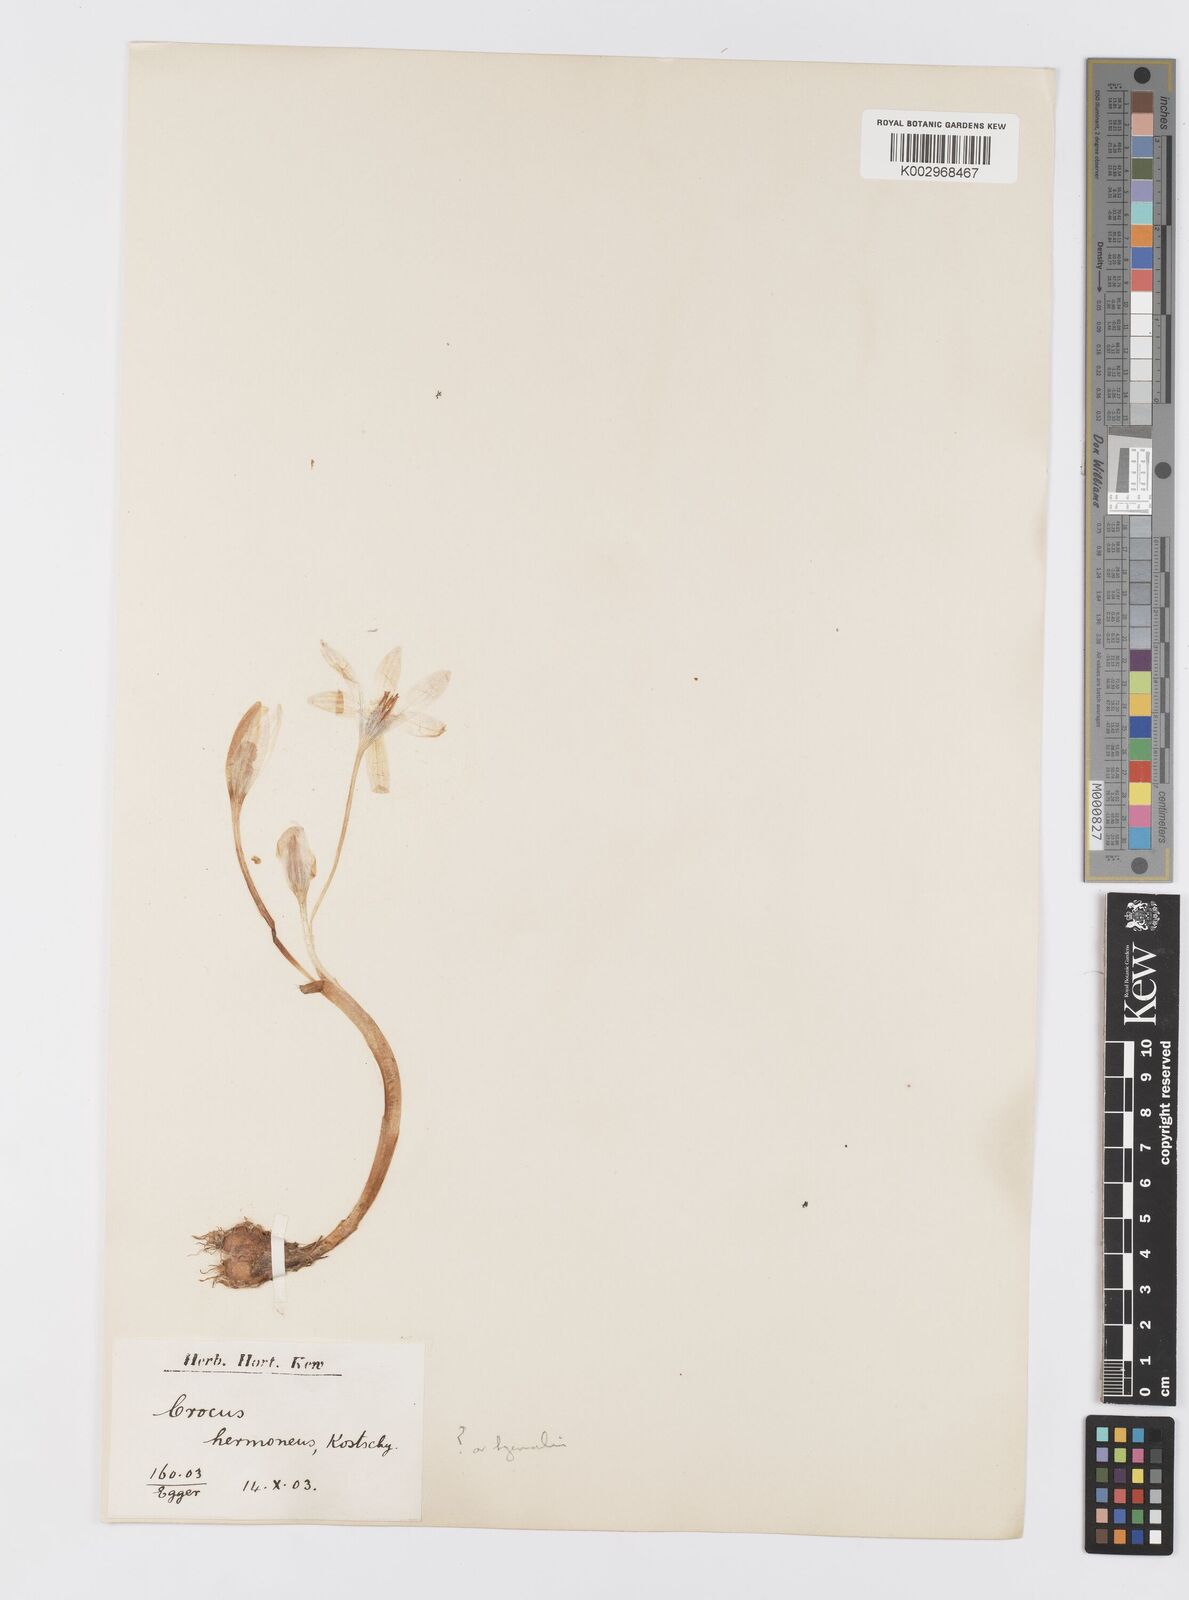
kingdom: Plantae
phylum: Tracheophyta
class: Liliopsida
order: Asparagales
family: Iridaceae
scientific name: Iridaceae
